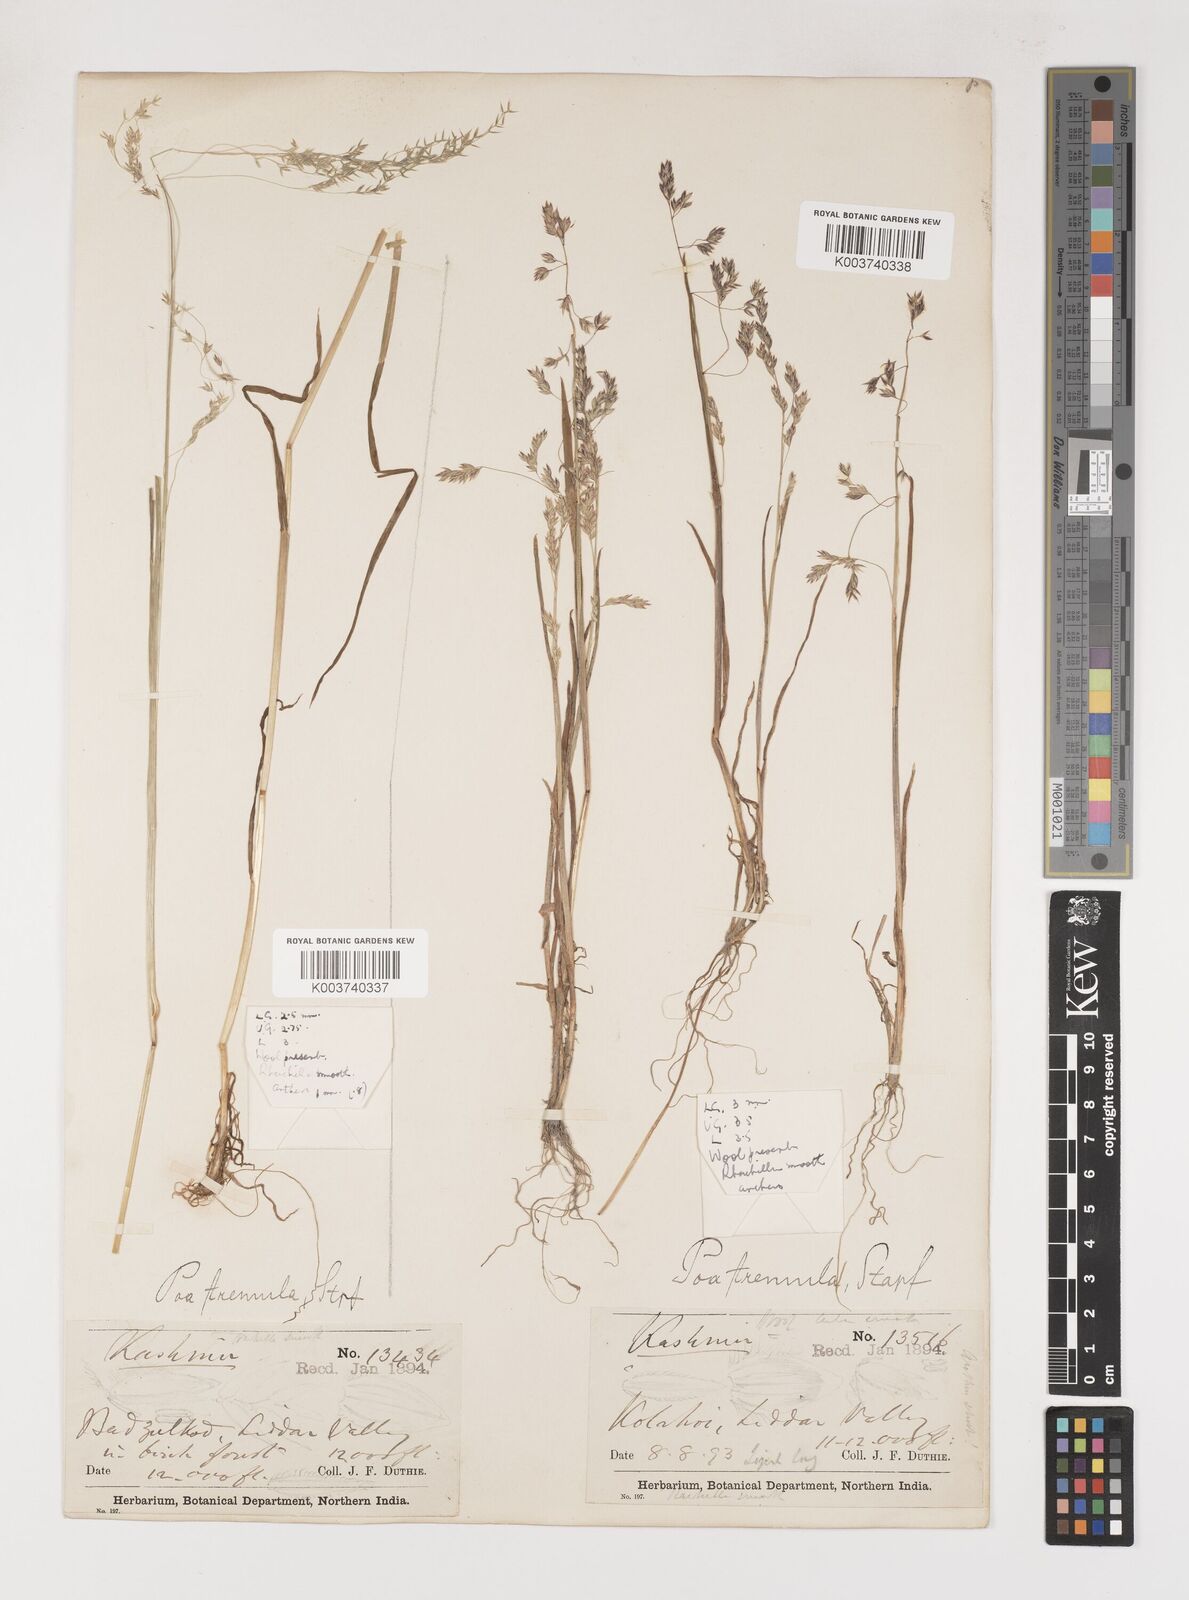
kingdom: Plantae
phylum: Tracheophyta
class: Liliopsida
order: Poales
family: Poaceae
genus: Poa
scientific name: Poa stapfiana
